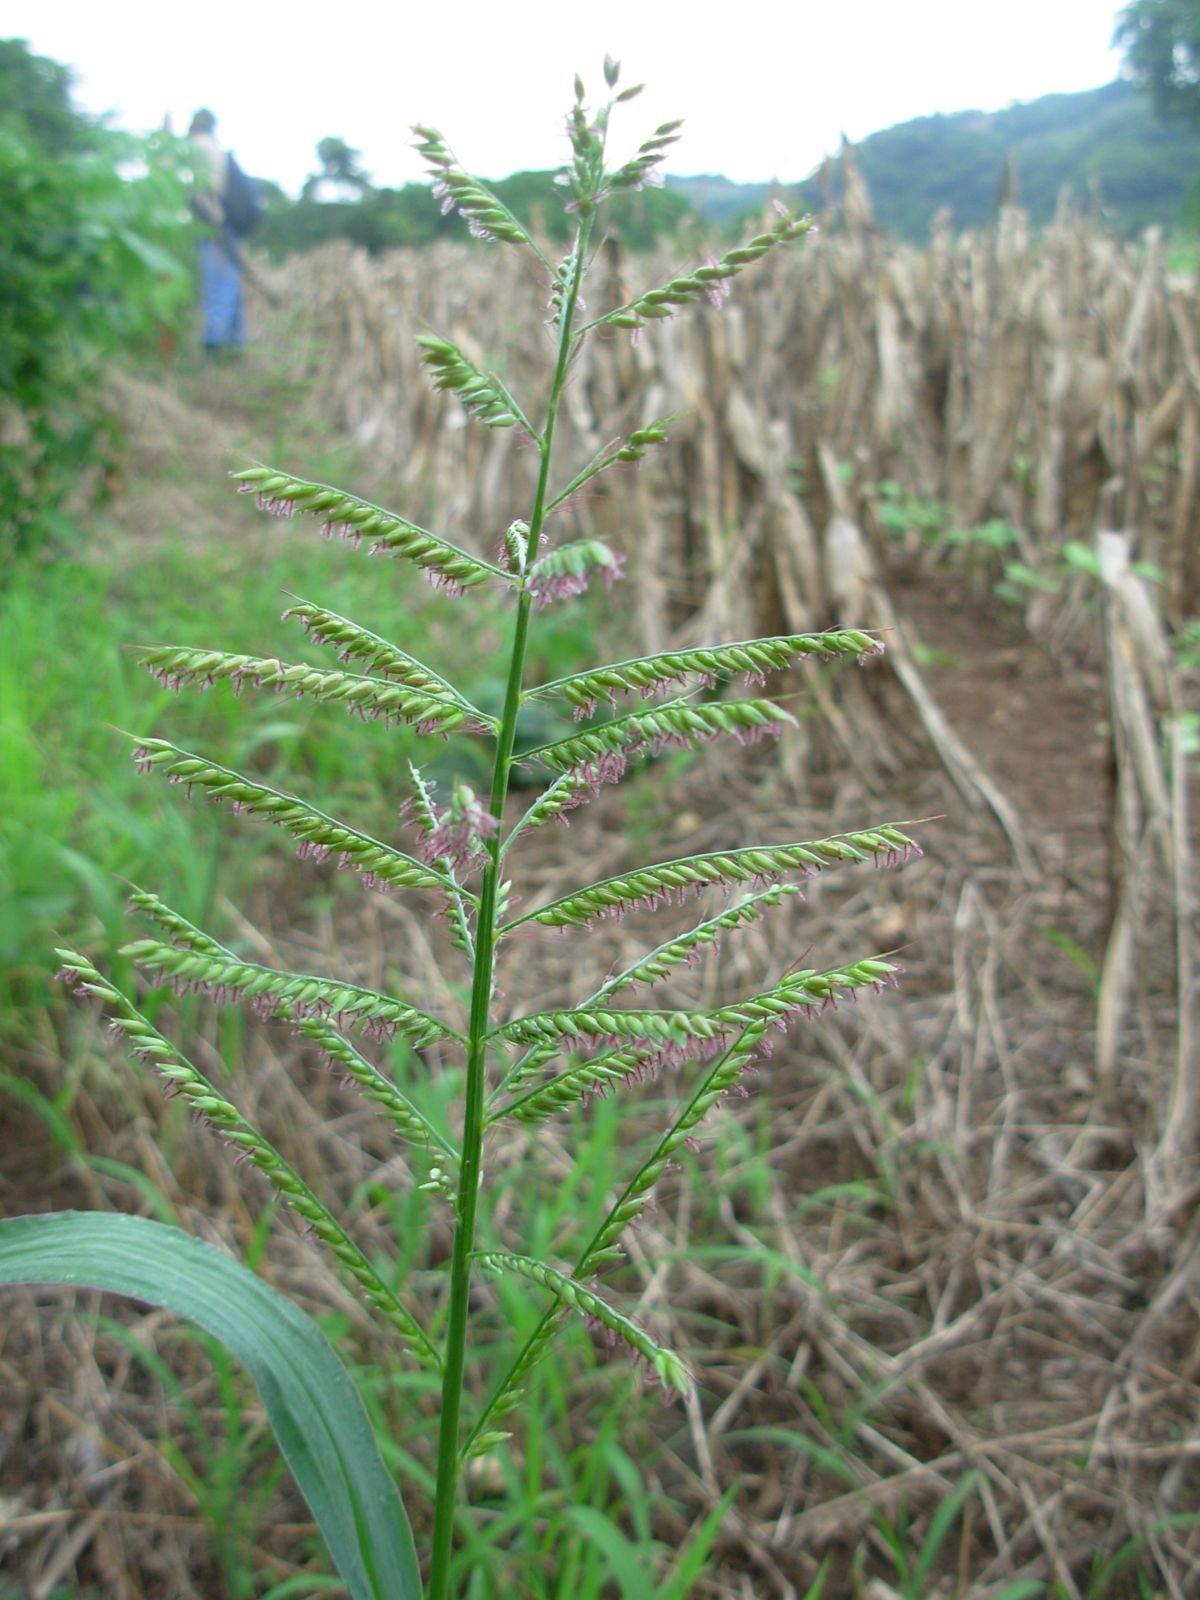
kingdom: Plantae
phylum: Tracheophyta
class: Liliopsida
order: Poales
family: Poaceae
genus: Ixophorus
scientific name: Ixophorus unisetus
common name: Crane grass
